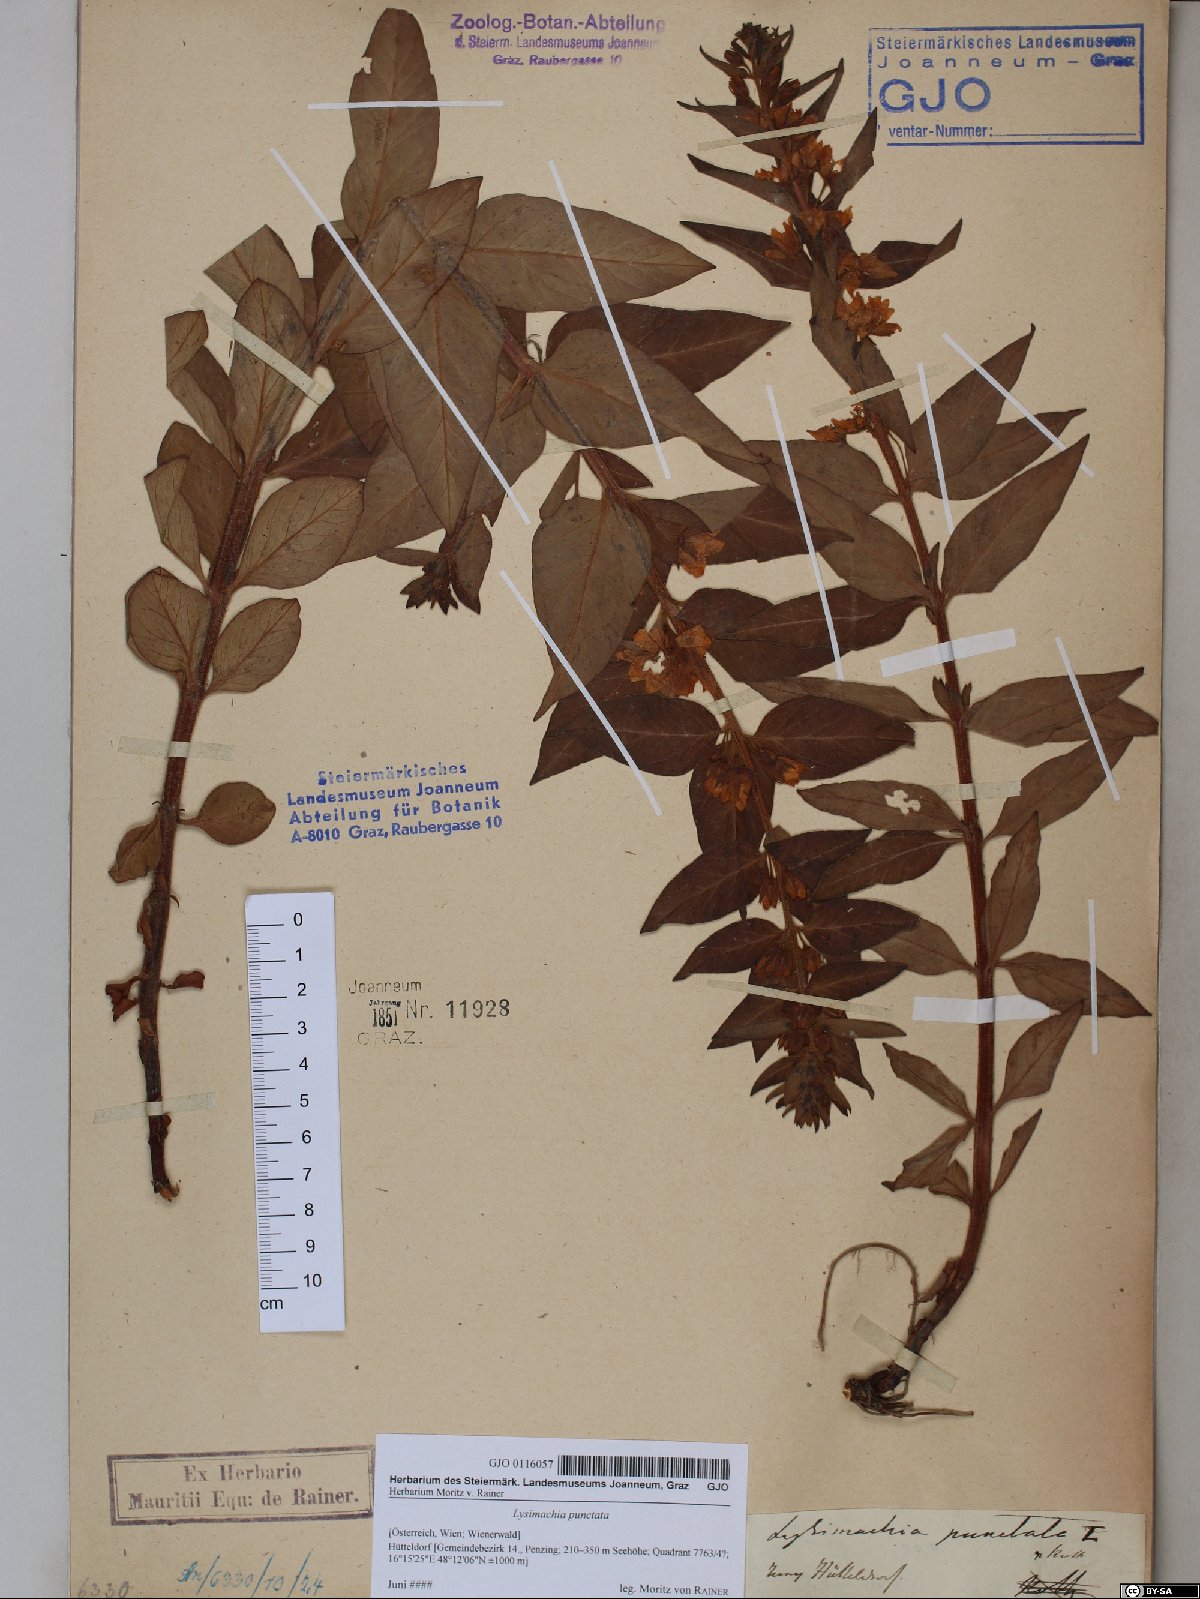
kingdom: Plantae
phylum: Tracheophyta
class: Magnoliopsida
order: Ericales
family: Primulaceae
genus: Lysimachia
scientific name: Lysimachia punctata
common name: Dotted loosestrife
